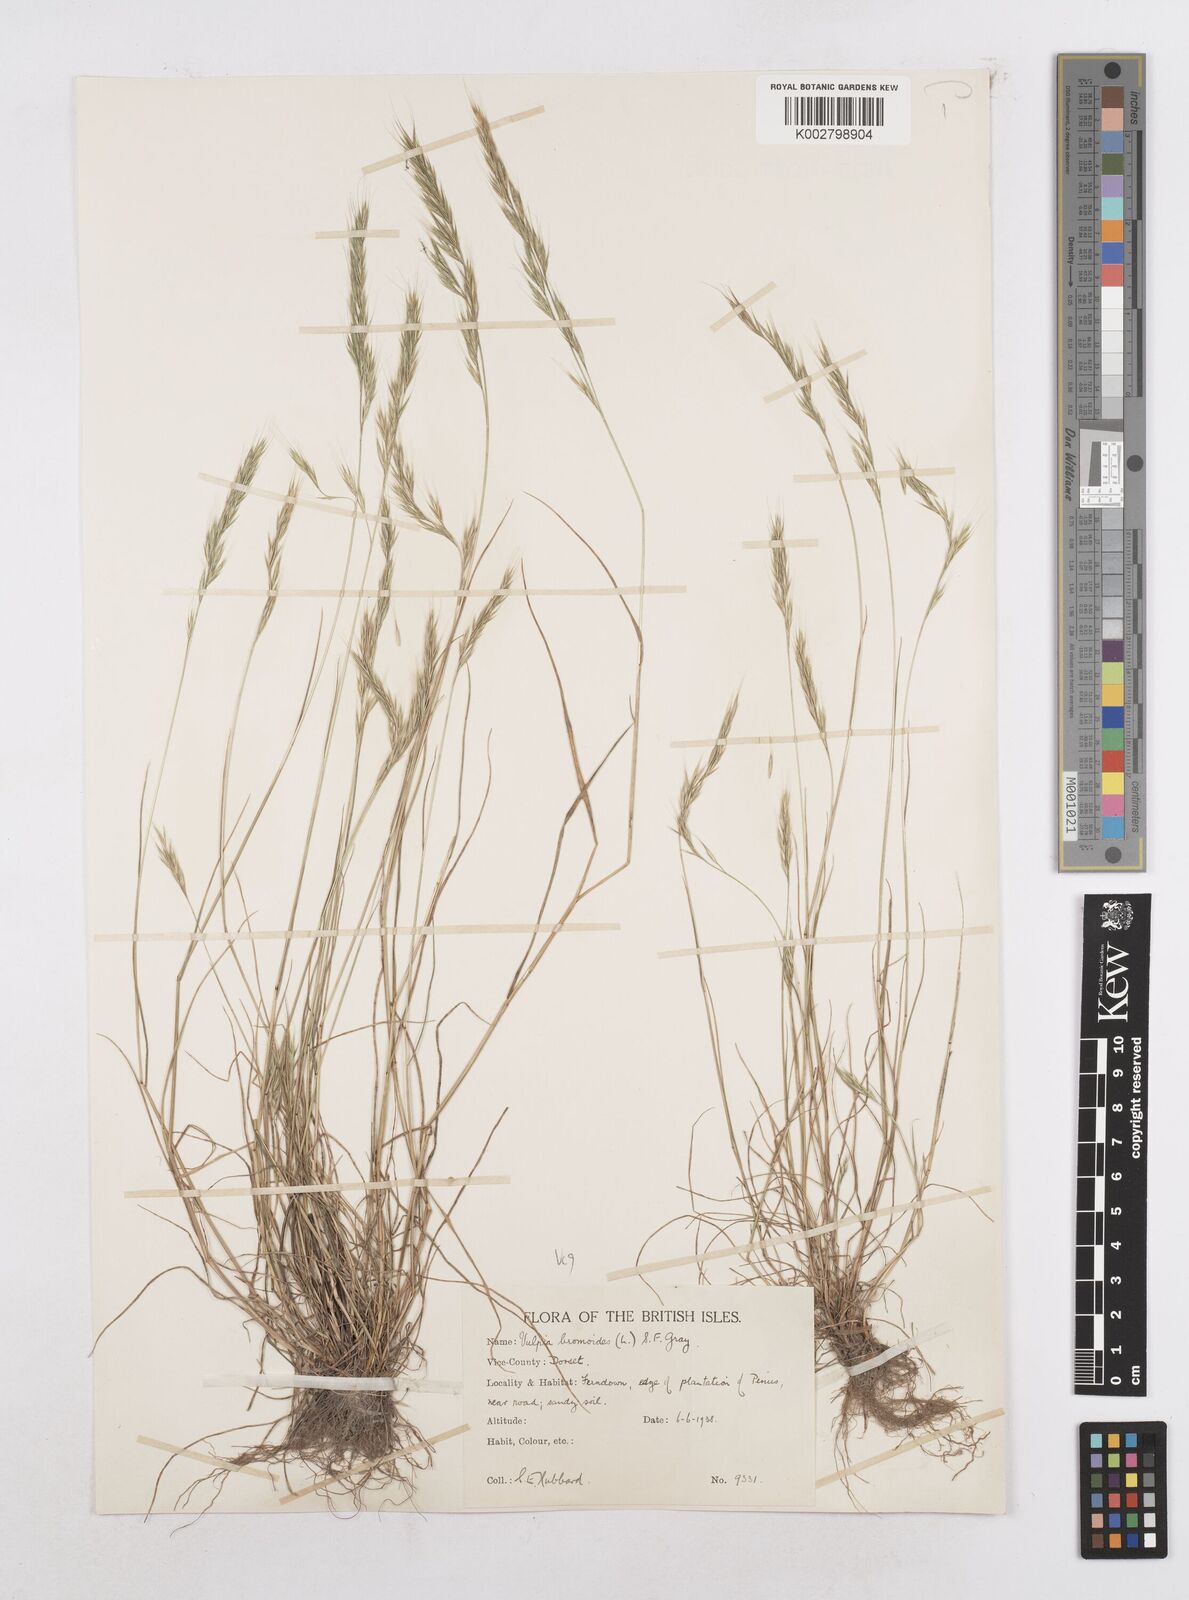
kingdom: Plantae
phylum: Tracheophyta
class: Liliopsida
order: Poales
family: Poaceae
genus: Festuca
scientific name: Festuca bromoides
